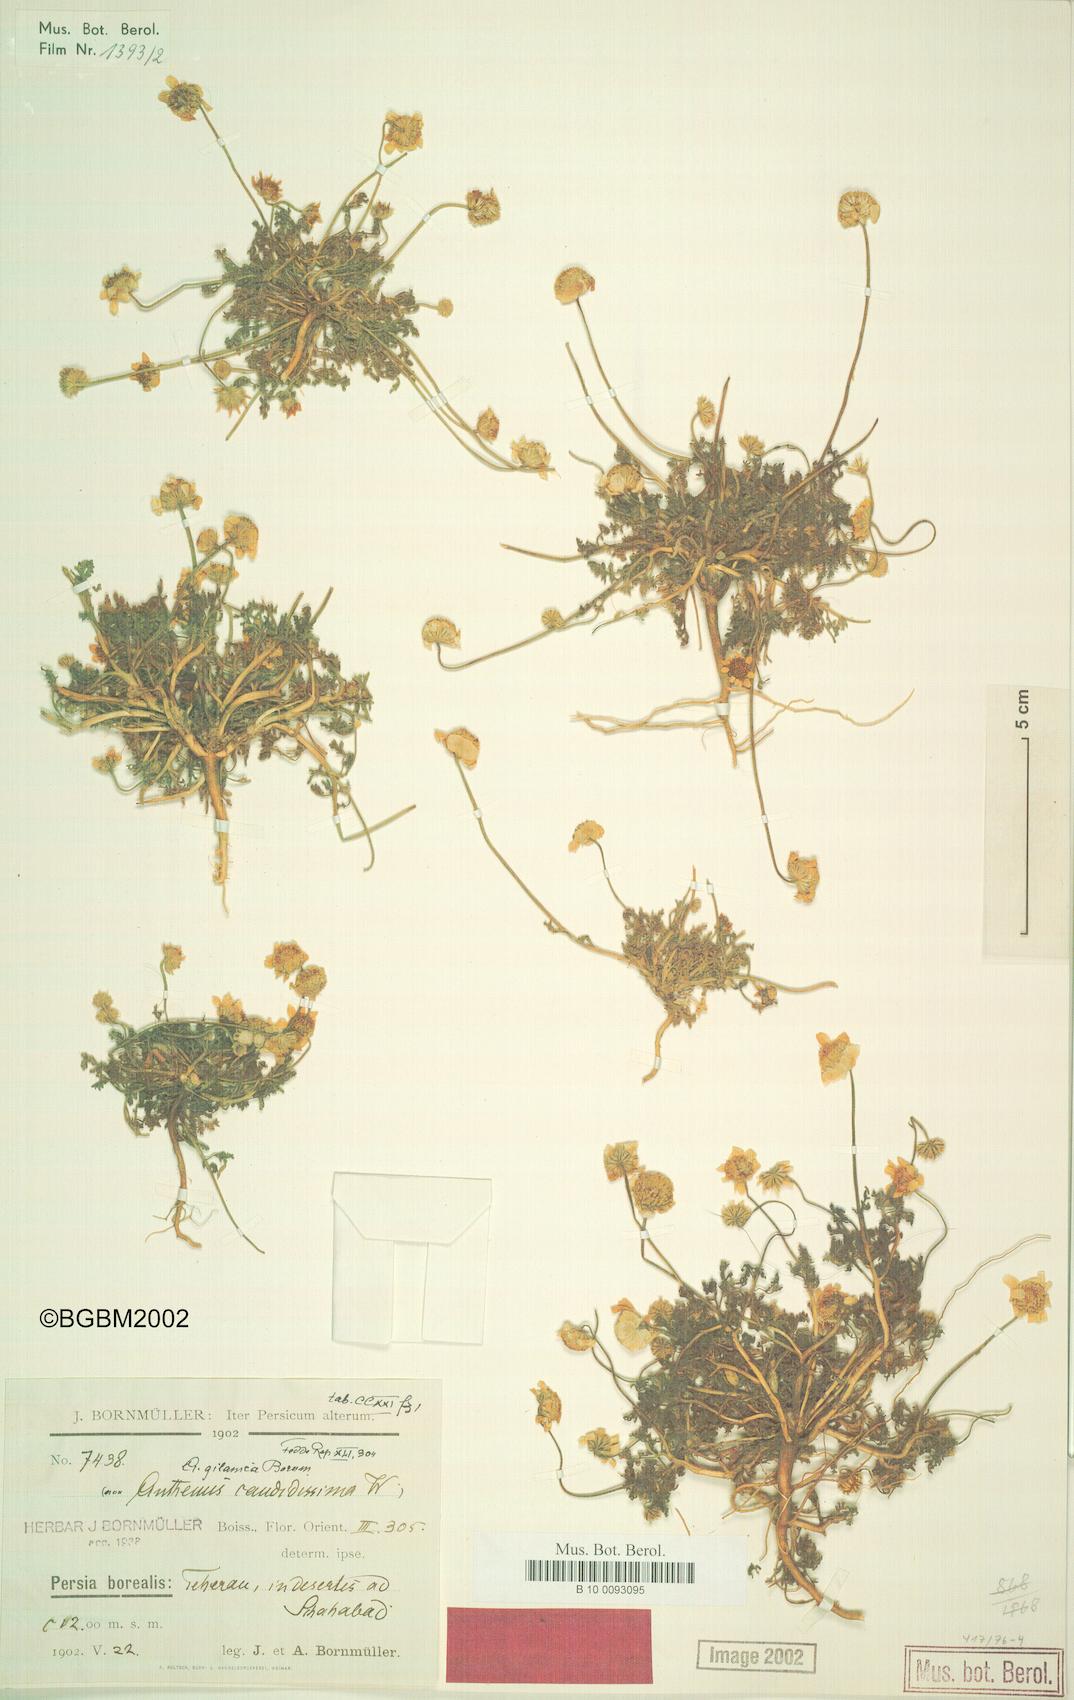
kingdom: Plantae
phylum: Tracheophyta
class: Magnoliopsida
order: Asterales
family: Asteraceae
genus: Anthemis
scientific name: Anthemis gilanica
